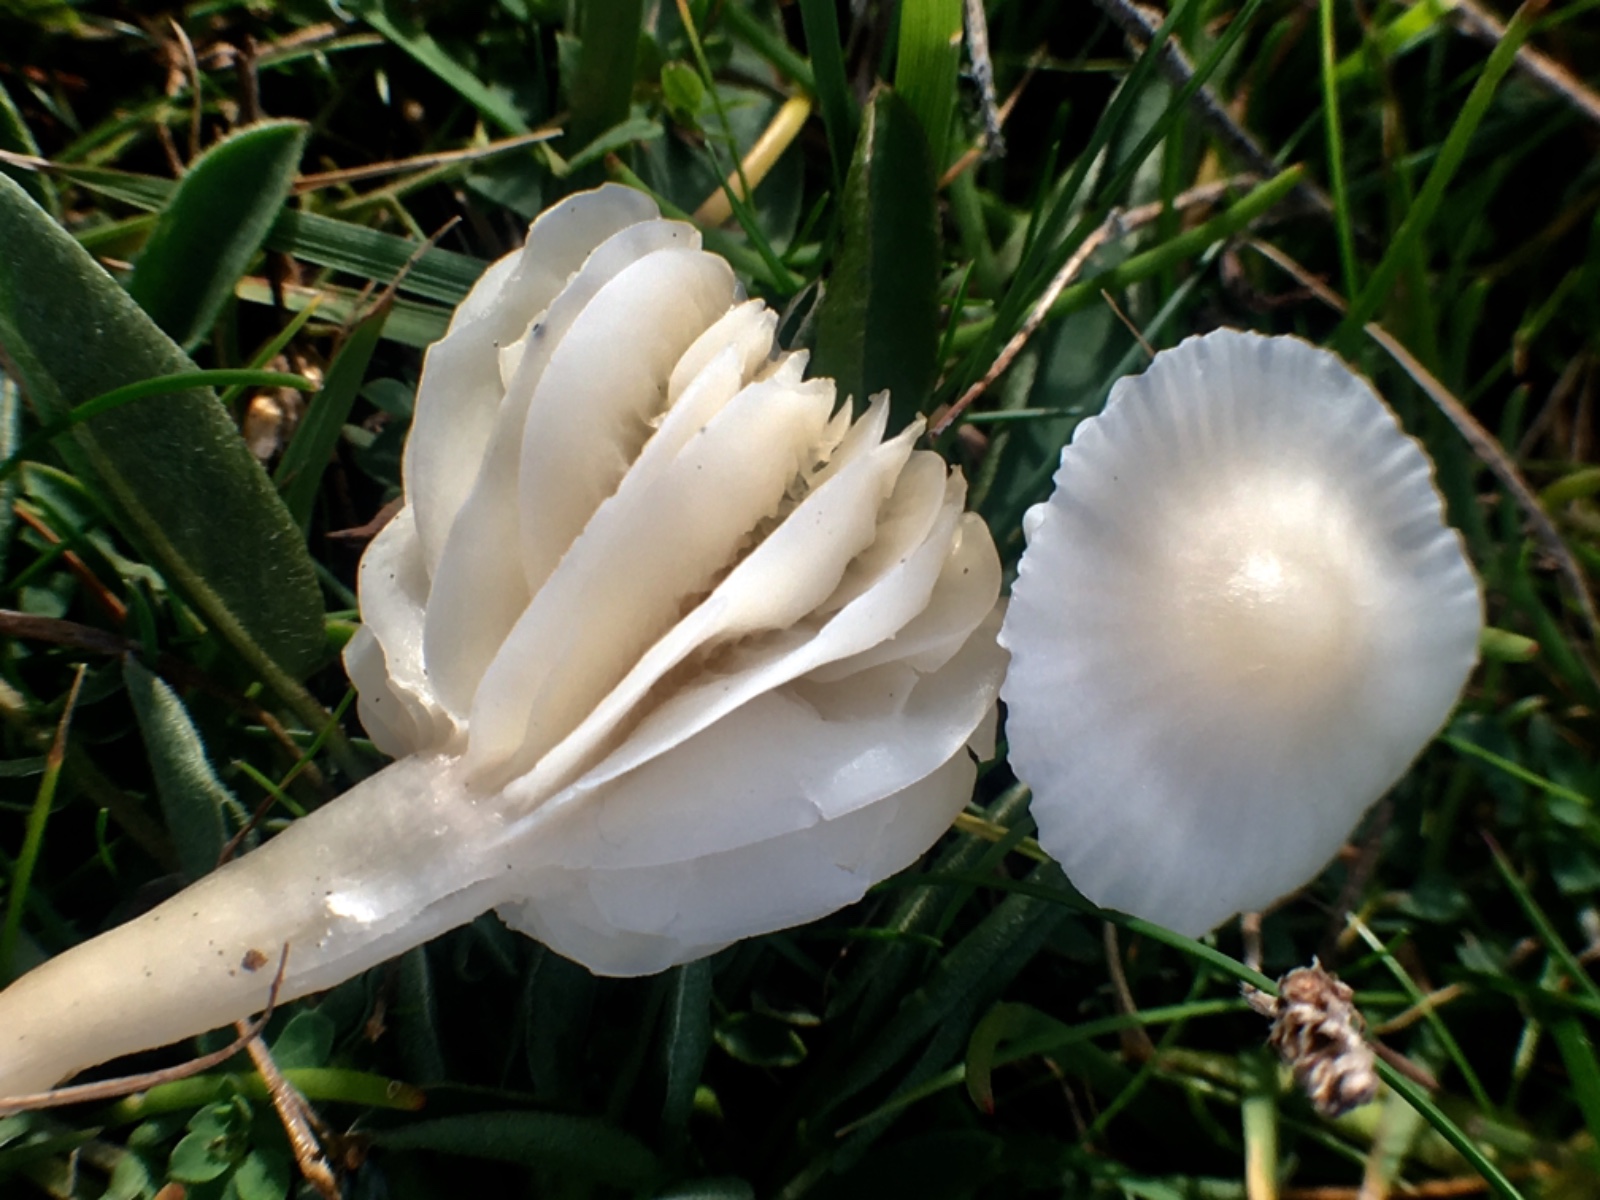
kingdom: Fungi
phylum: Basidiomycota
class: Agaricomycetes
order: Agaricales
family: Hygrophoraceae
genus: Cuphophyllus
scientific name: Cuphophyllus virgineus
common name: snehvid vokshat
